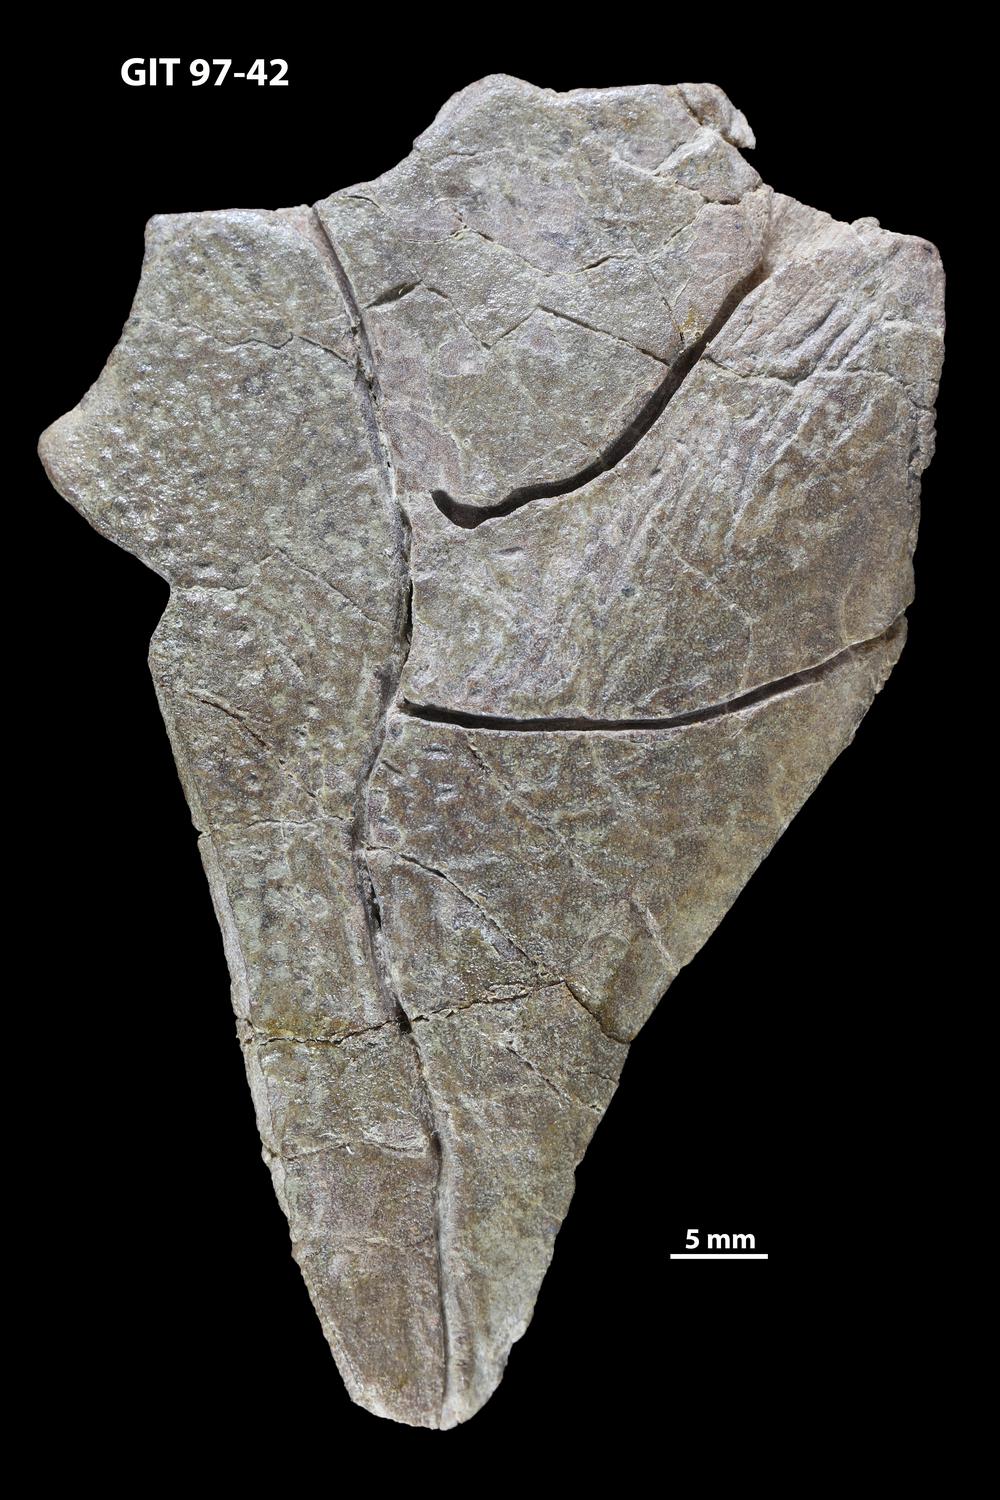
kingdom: Animalia
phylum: Chordata
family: Holonematidae
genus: Holonema
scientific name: Holonema
